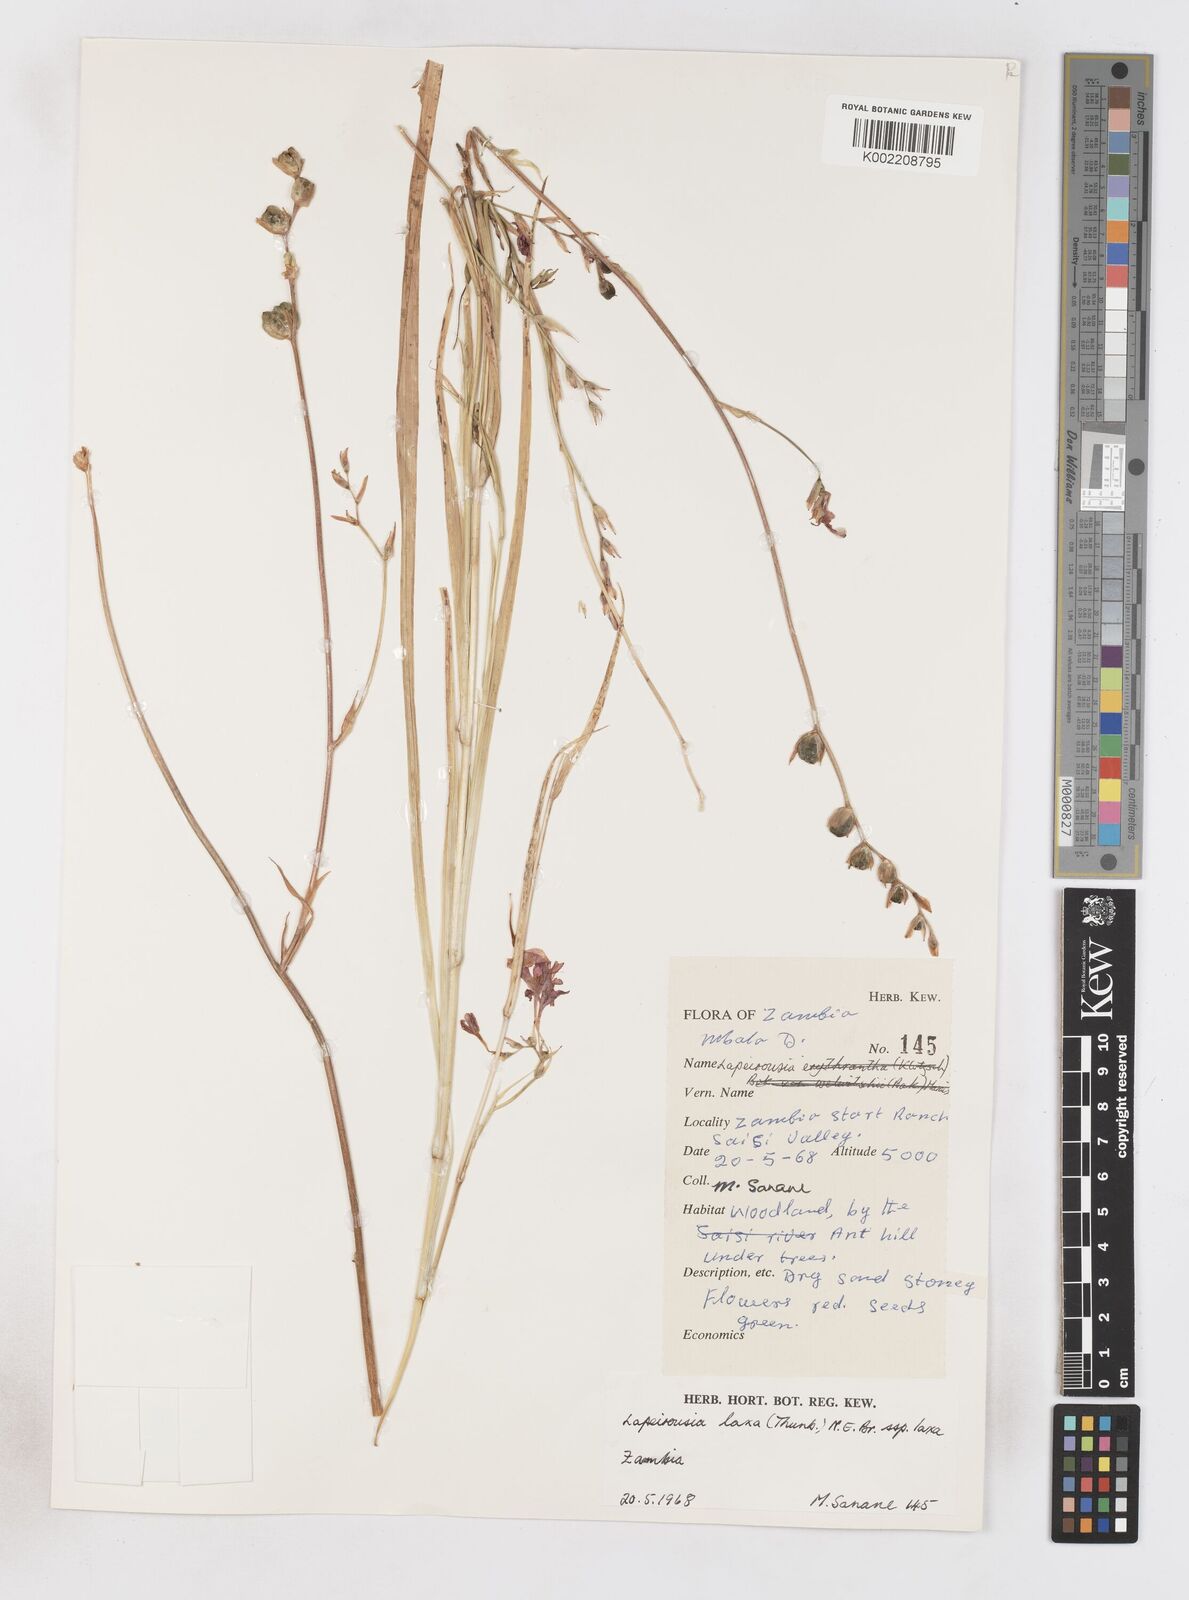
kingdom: Plantae
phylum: Tracheophyta
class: Liliopsida
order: Asparagales
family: Iridaceae
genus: Freesia
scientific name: Freesia laxa
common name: False freesia
